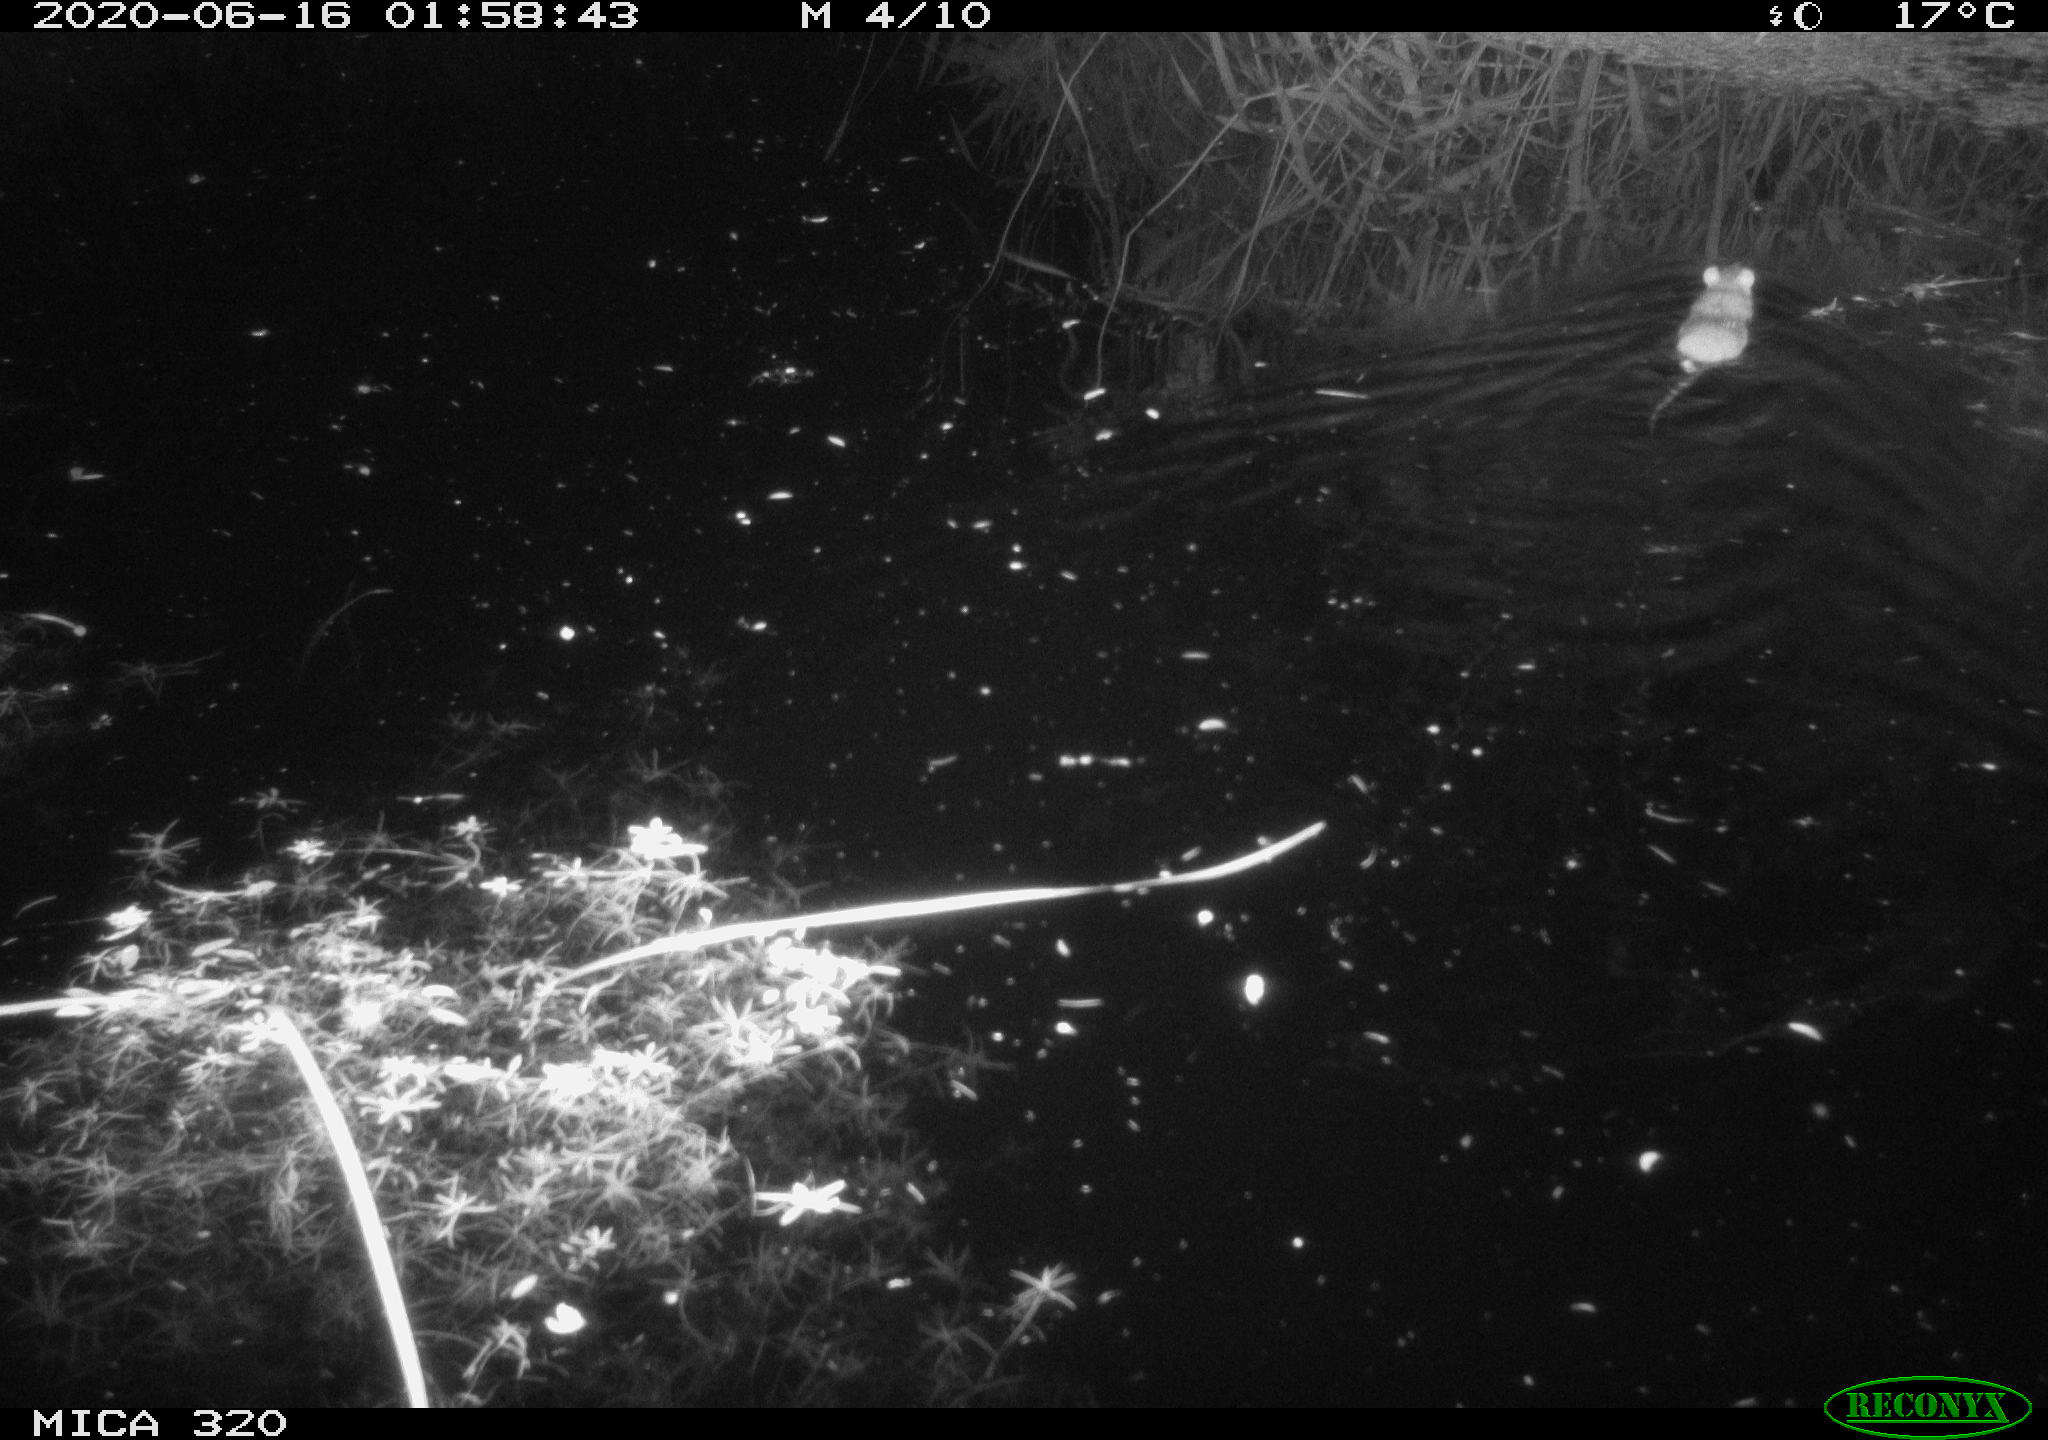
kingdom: Animalia
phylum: Chordata
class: Mammalia
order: Rodentia
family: Muridae
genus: Rattus
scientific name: Rattus norvegicus
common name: Brown rat
